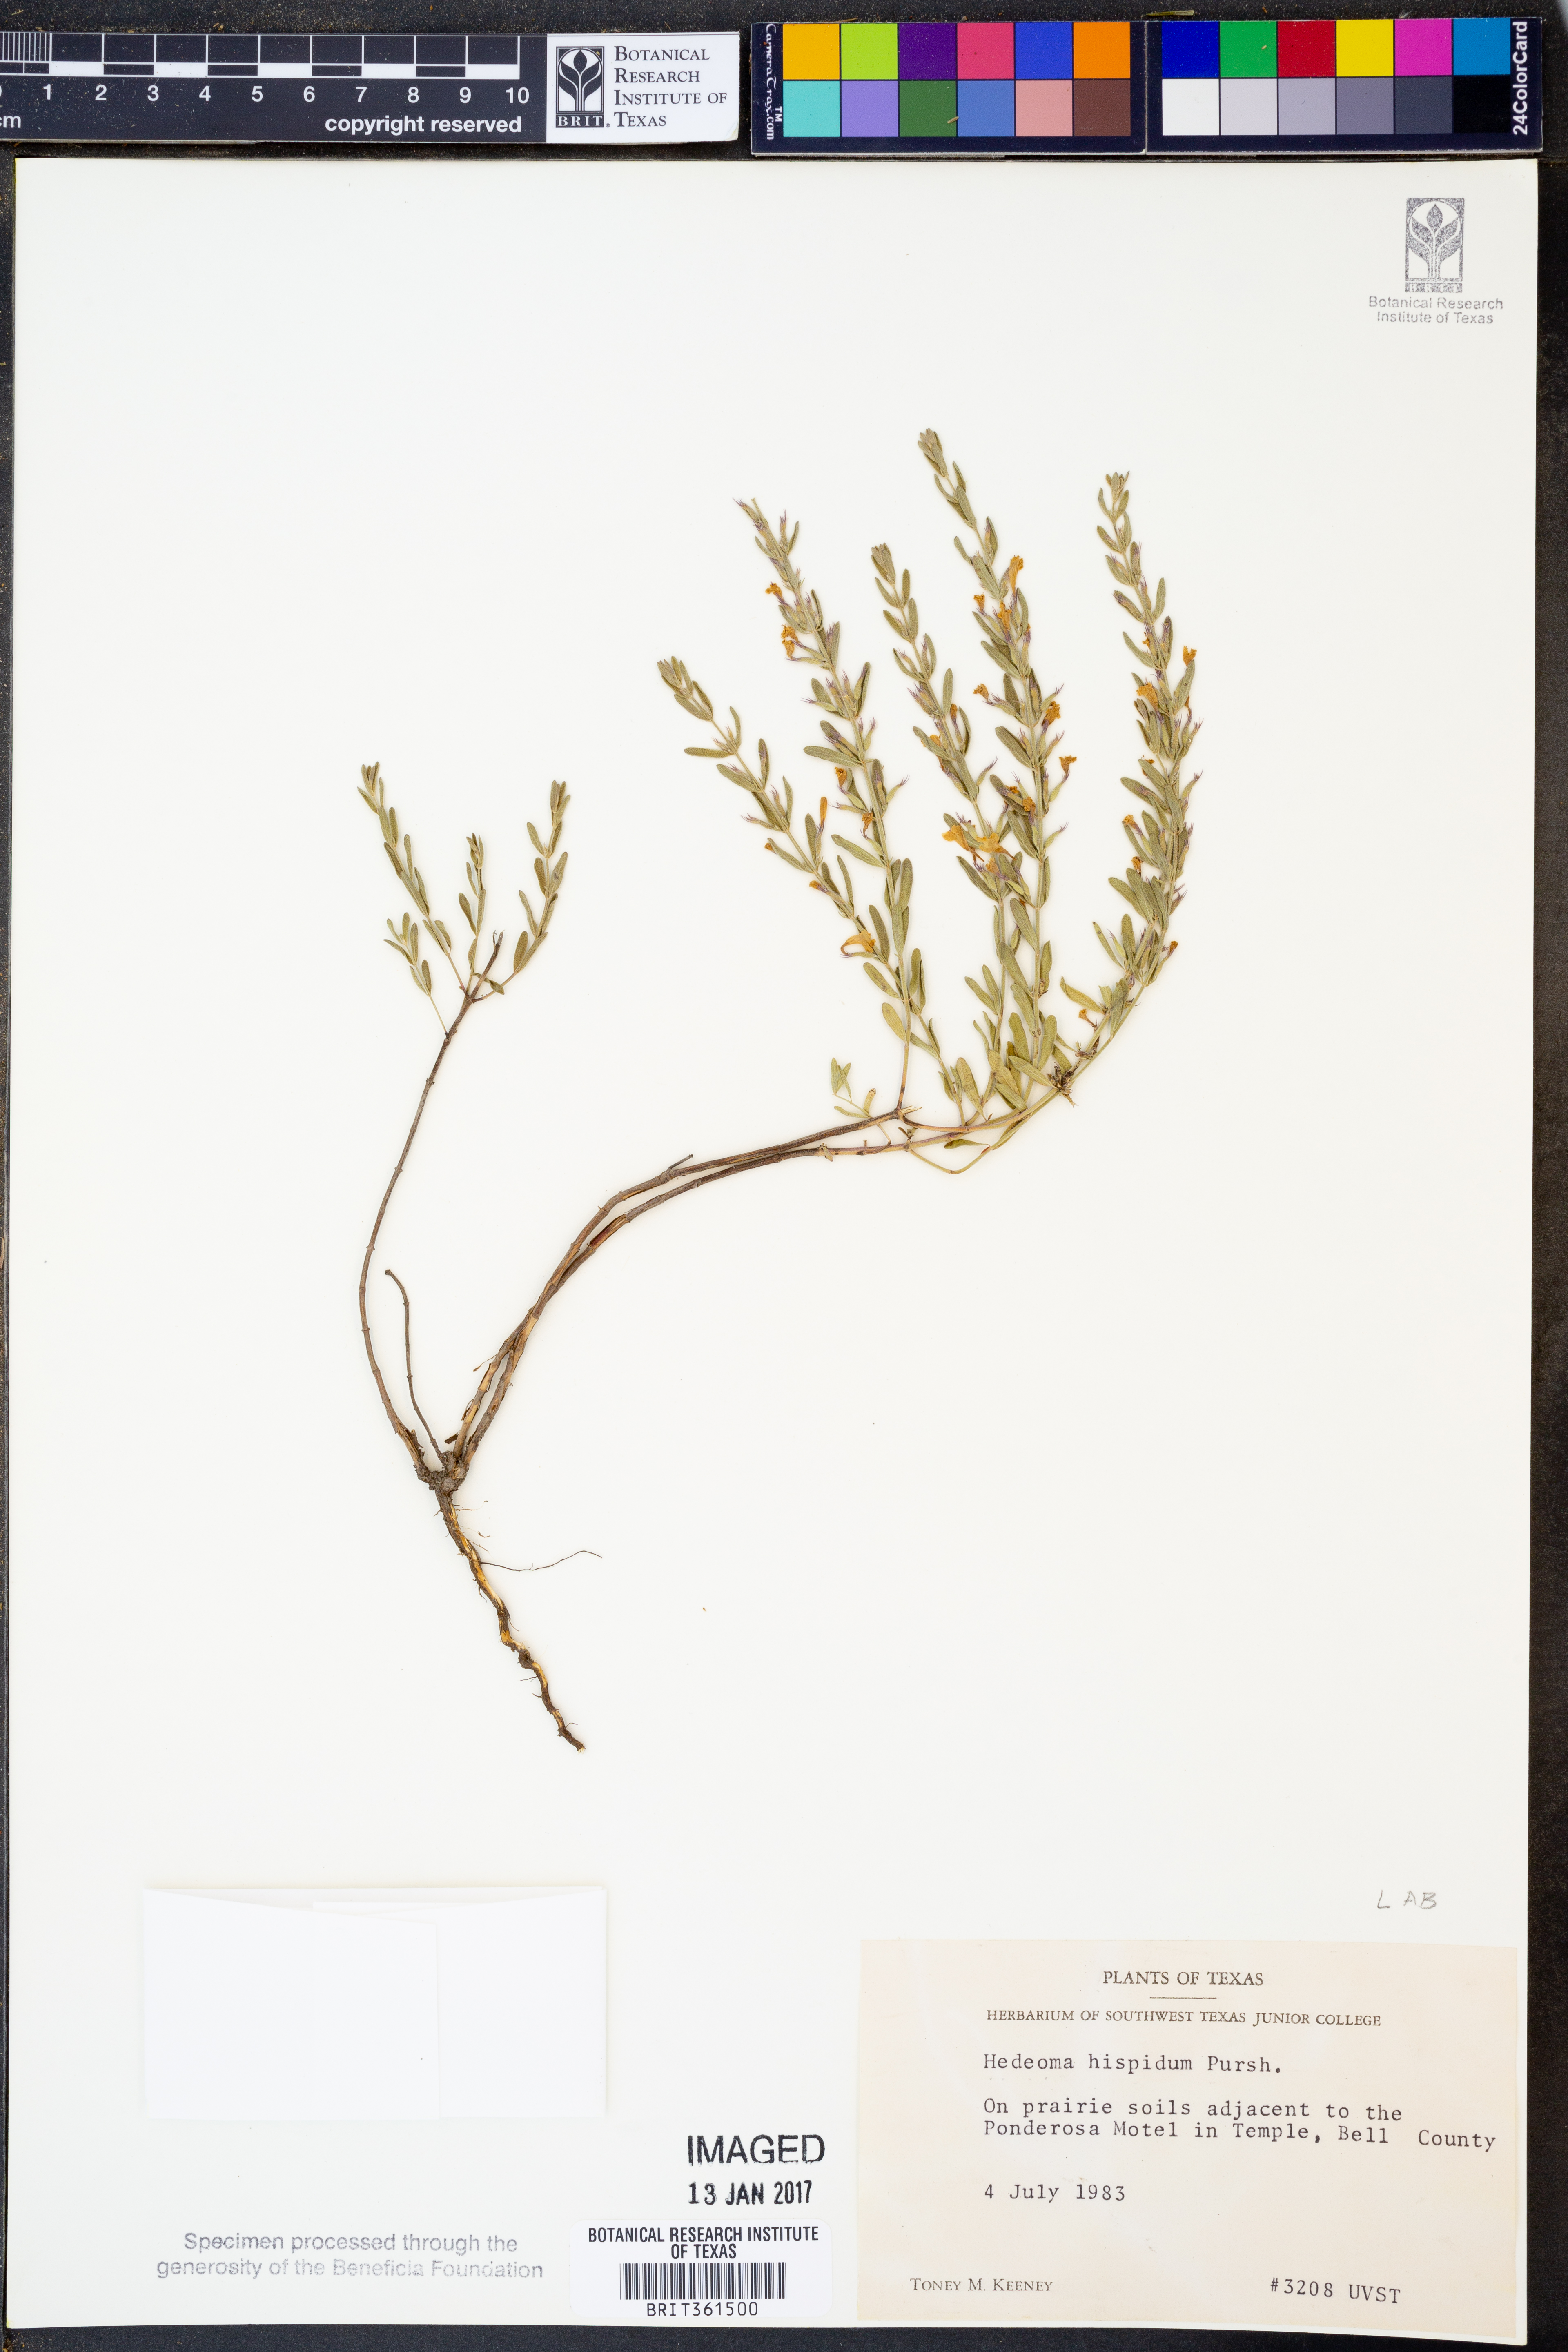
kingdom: Plantae
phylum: Tracheophyta
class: Magnoliopsida
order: Lamiales
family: Lamiaceae
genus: Hedeoma
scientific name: Hedeoma hispida
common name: Mock pennyroyal
